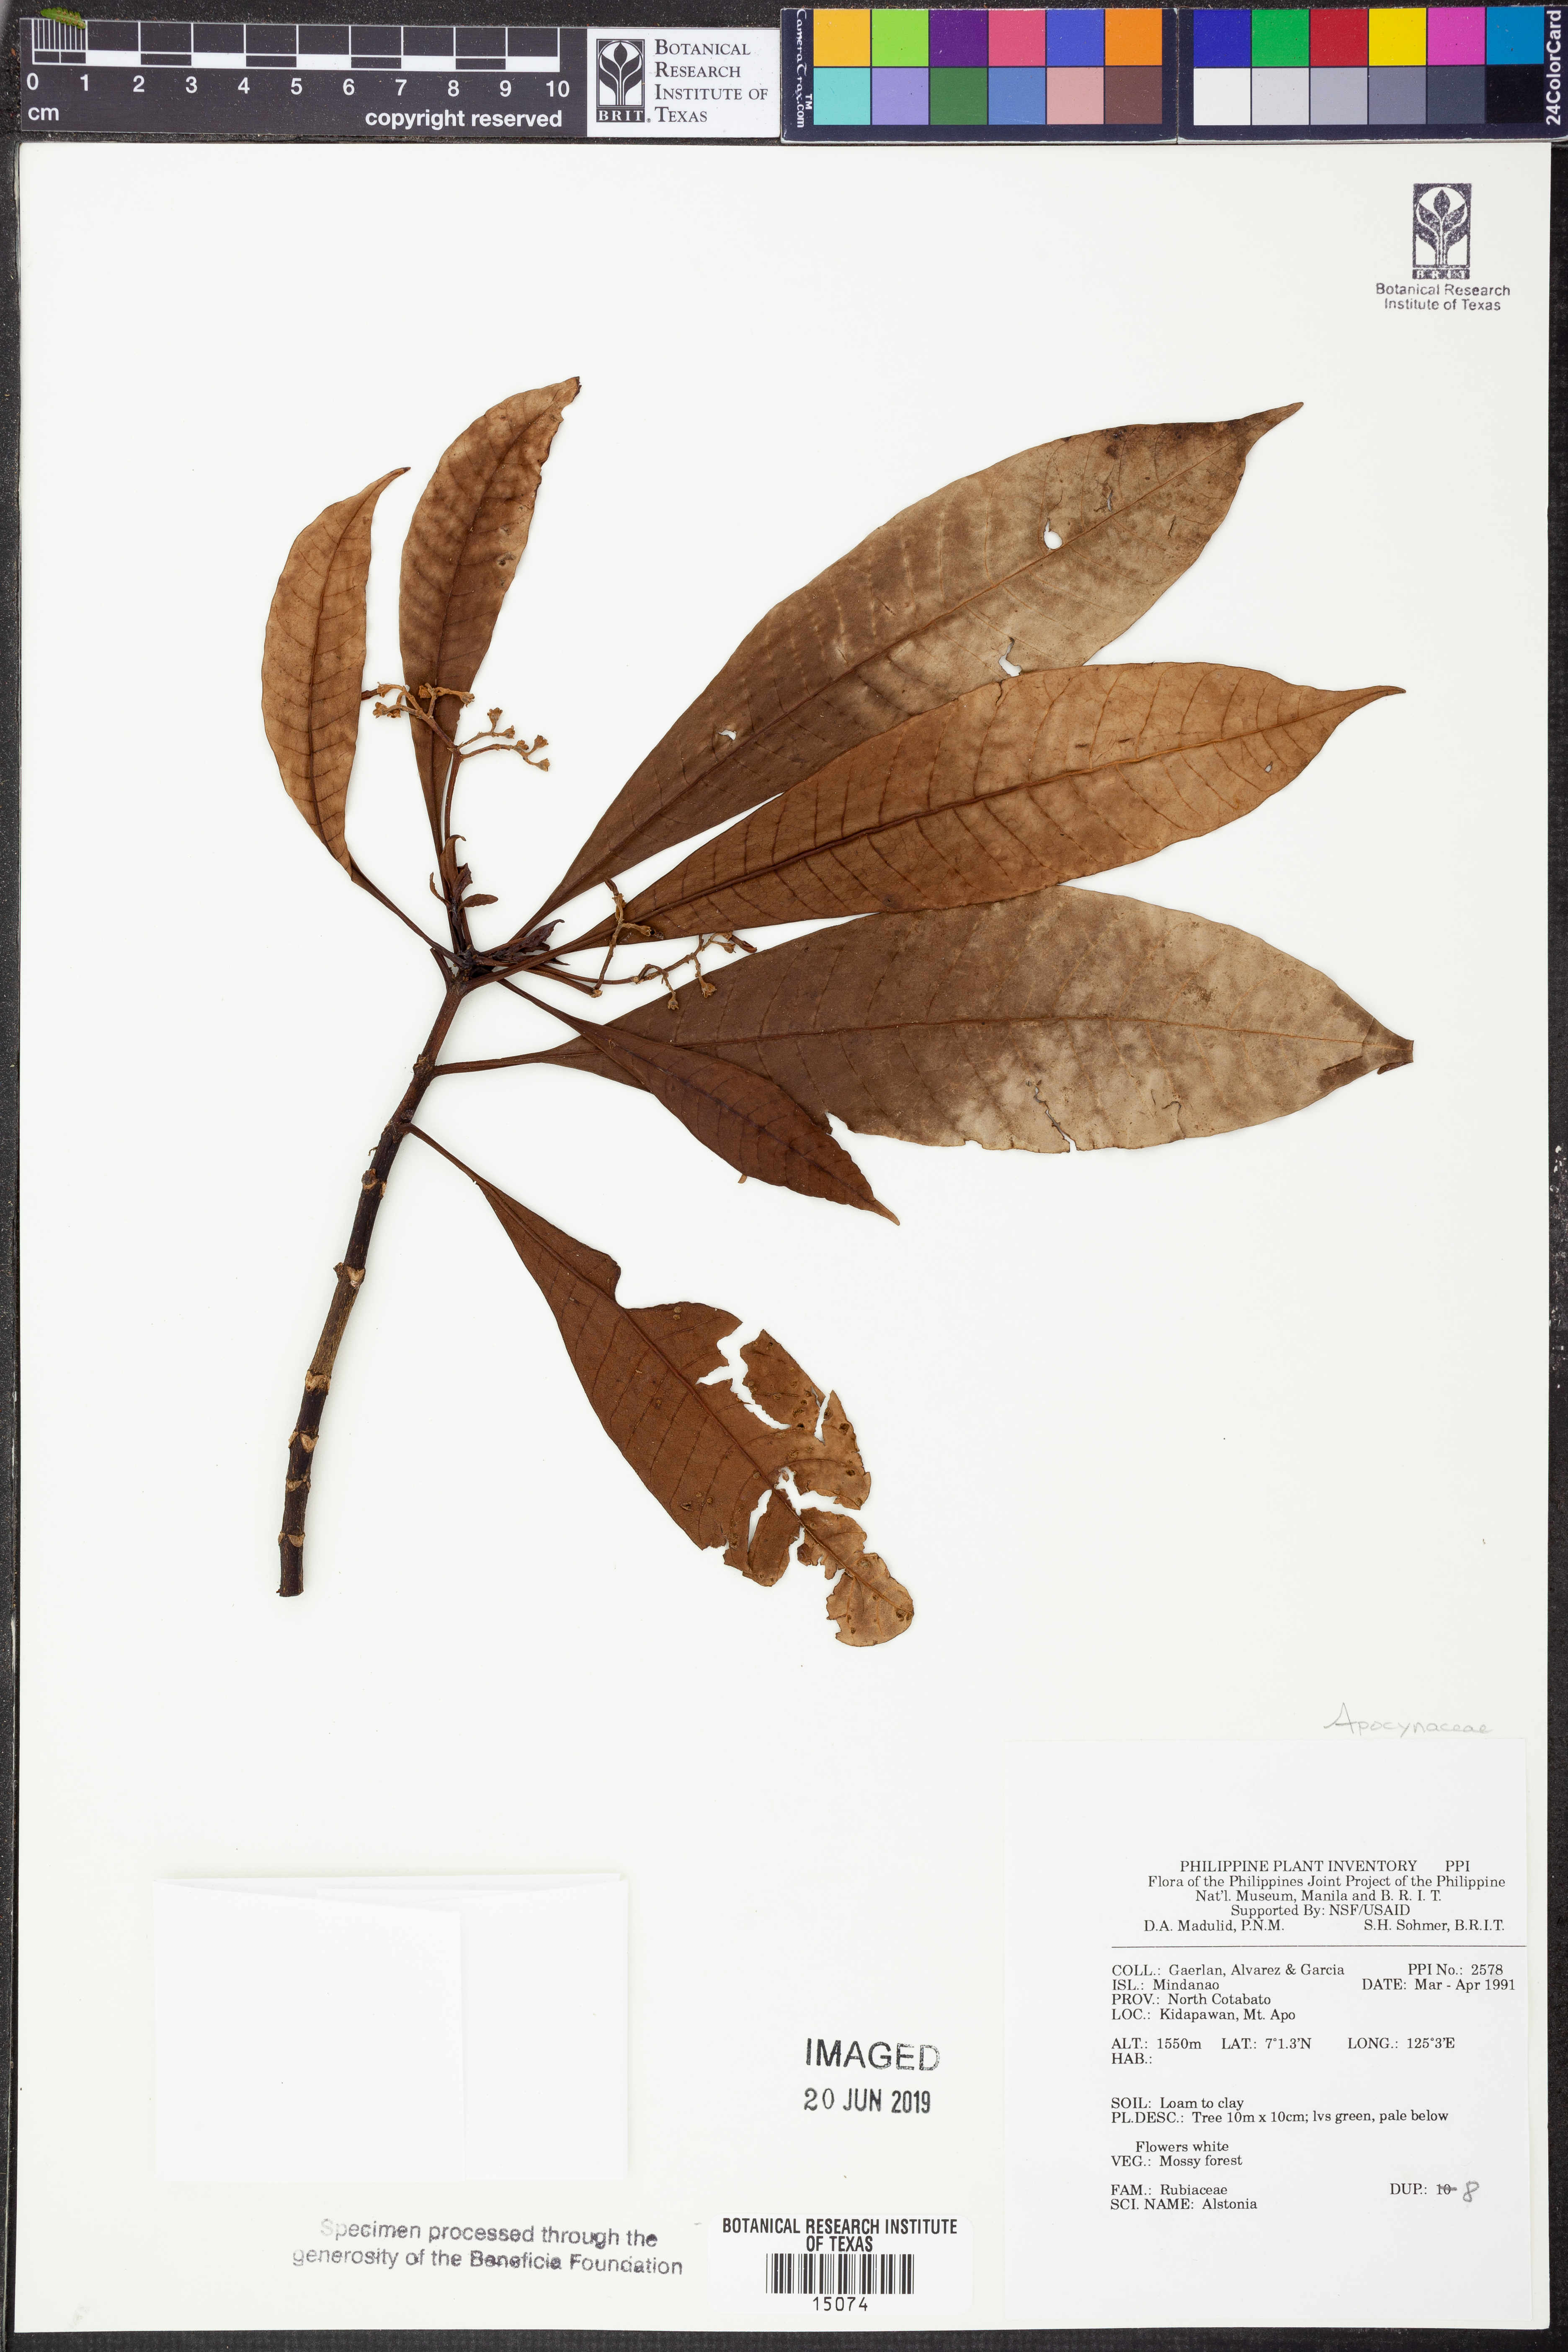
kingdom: Plantae
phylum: Tracheophyta
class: Magnoliopsida
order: Gentianales
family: Apocynaceae
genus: Alstonia
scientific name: Alstonia
